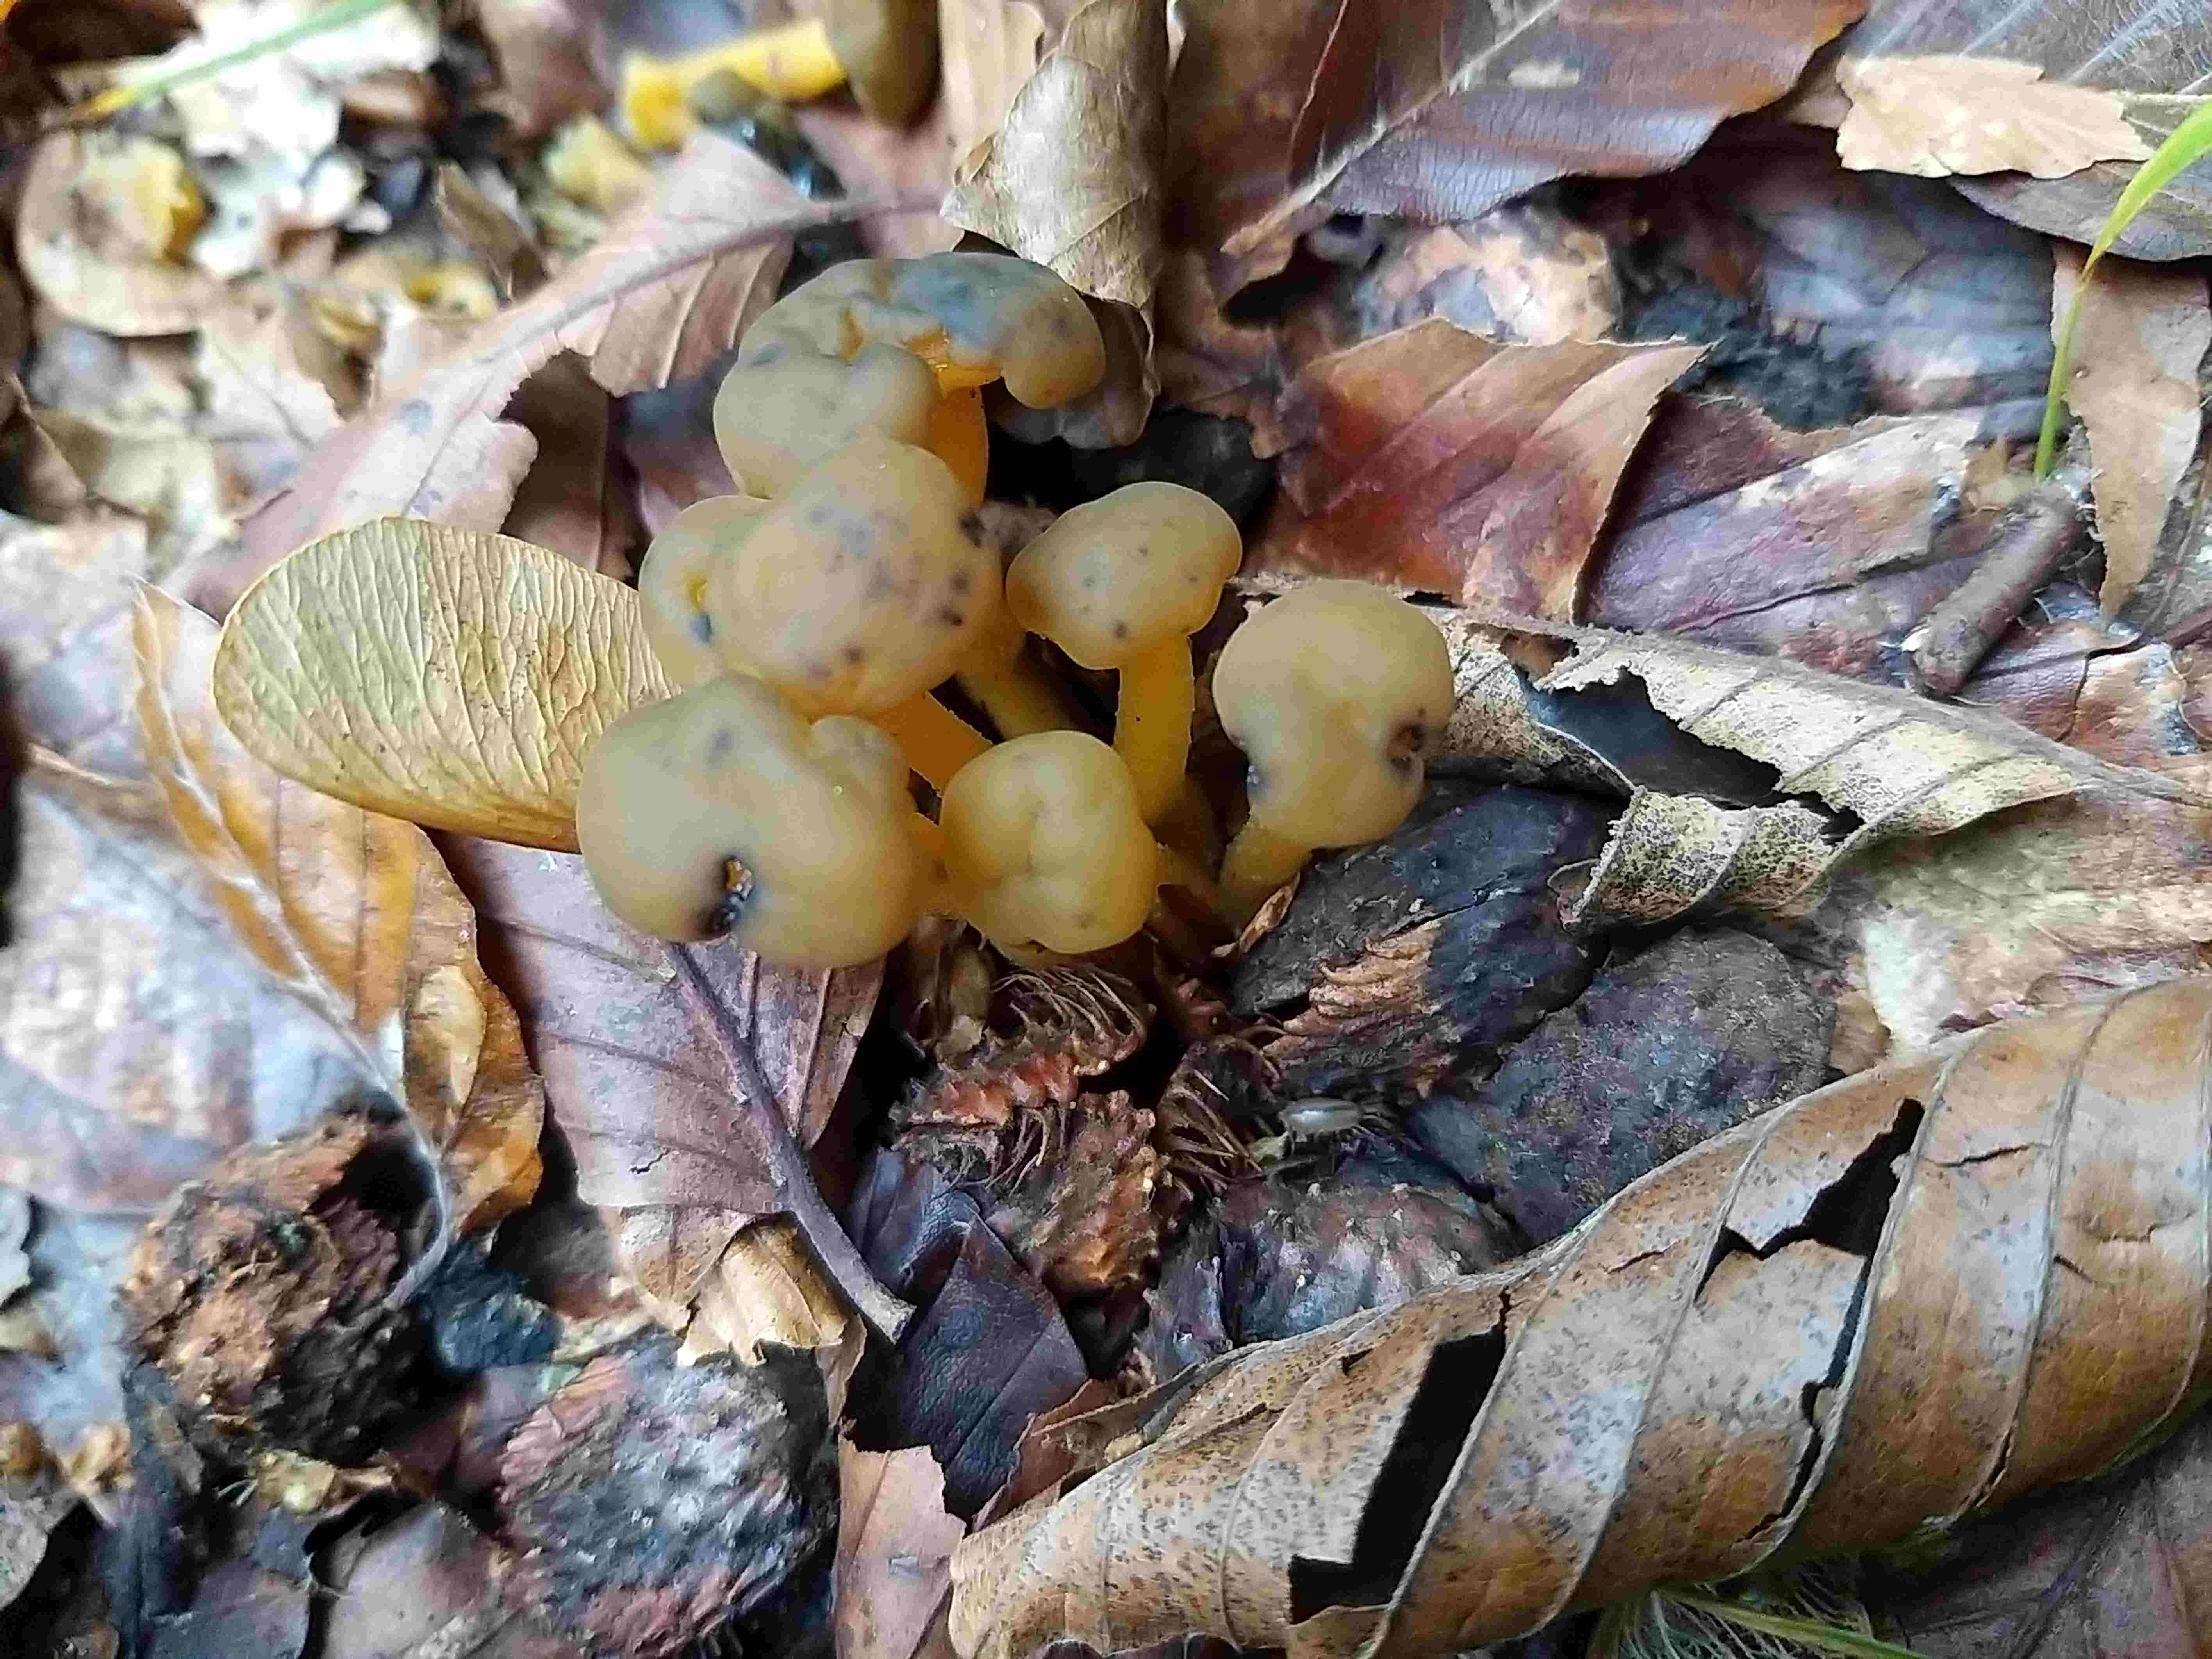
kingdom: Fungi
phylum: Ascomycota
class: Leotiomycetes
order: Leotiales
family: Leotiaceae
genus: Leotia
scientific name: Leotia lubrica
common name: ravsvamp
